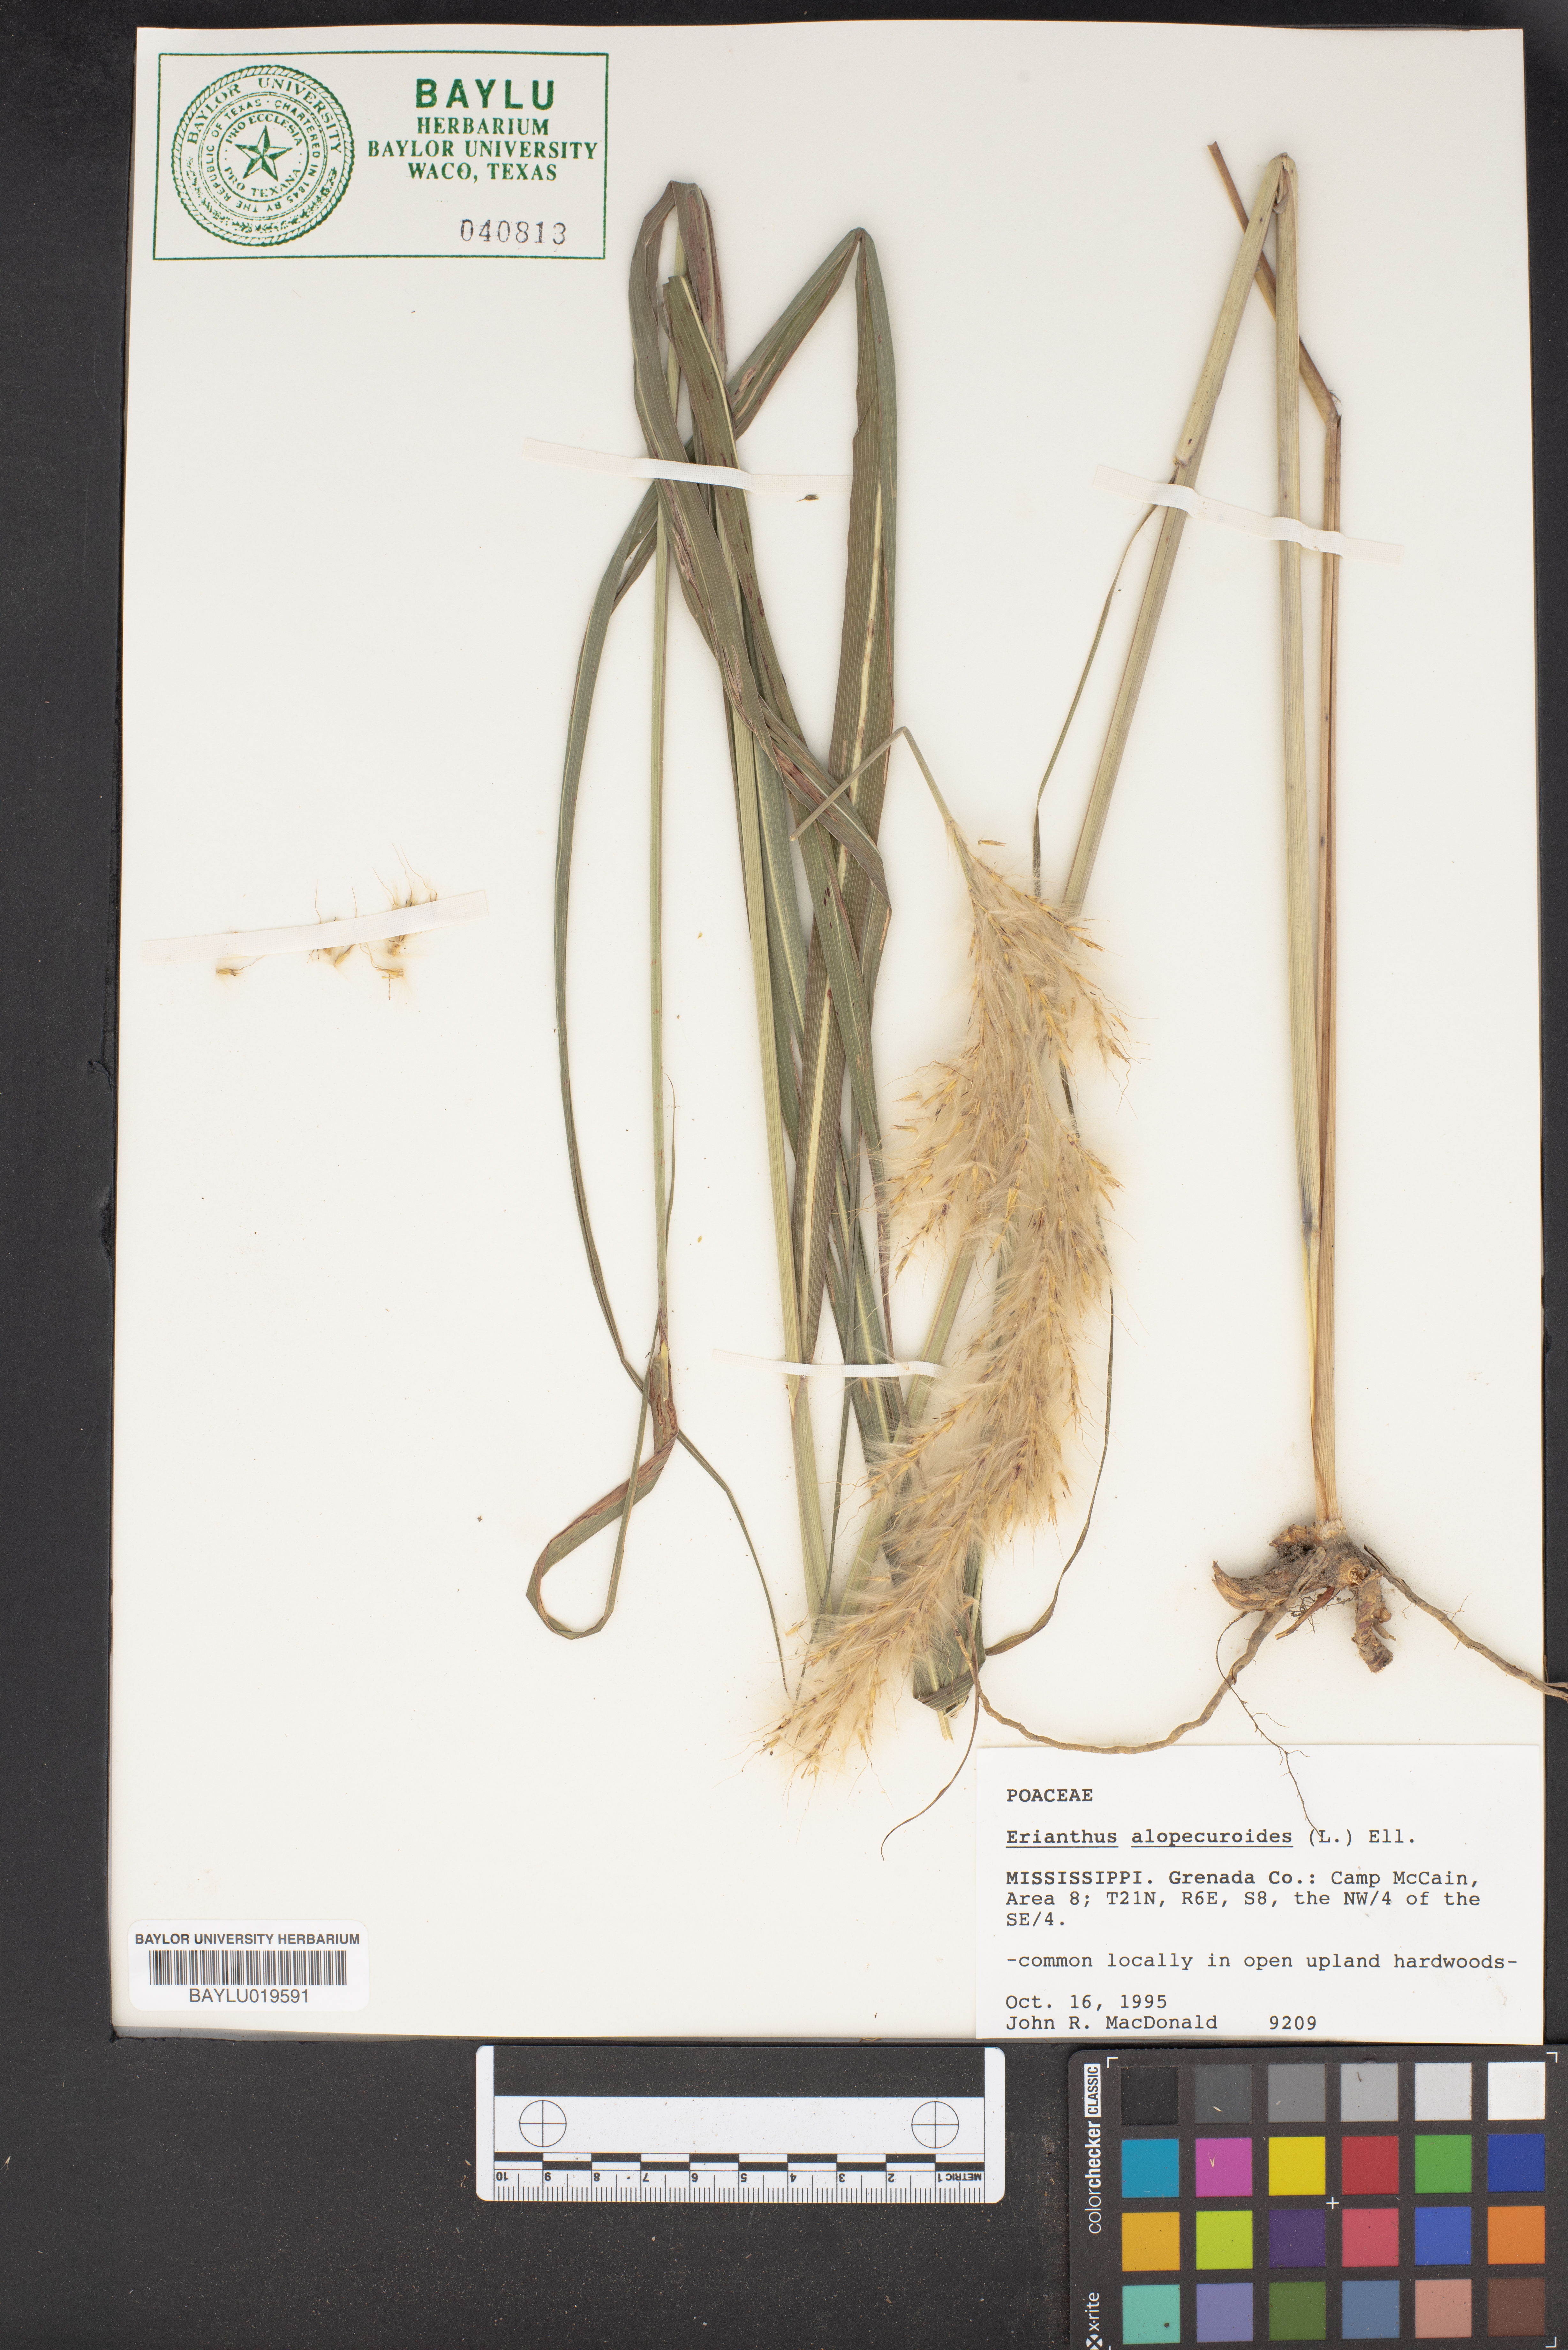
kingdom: Plantae
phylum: Tracheophyta
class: Liliopsida
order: Poales
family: Poaceae
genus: Erianthus
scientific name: Erianthus alopecuroides
